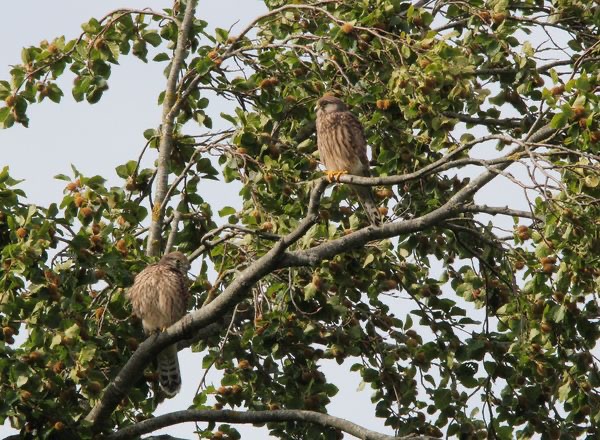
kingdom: Animalia
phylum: Chordata
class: Aves
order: Falconiformes
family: Falconidae
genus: Falco
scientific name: Falco tinnunculus
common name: Tårnfalk
